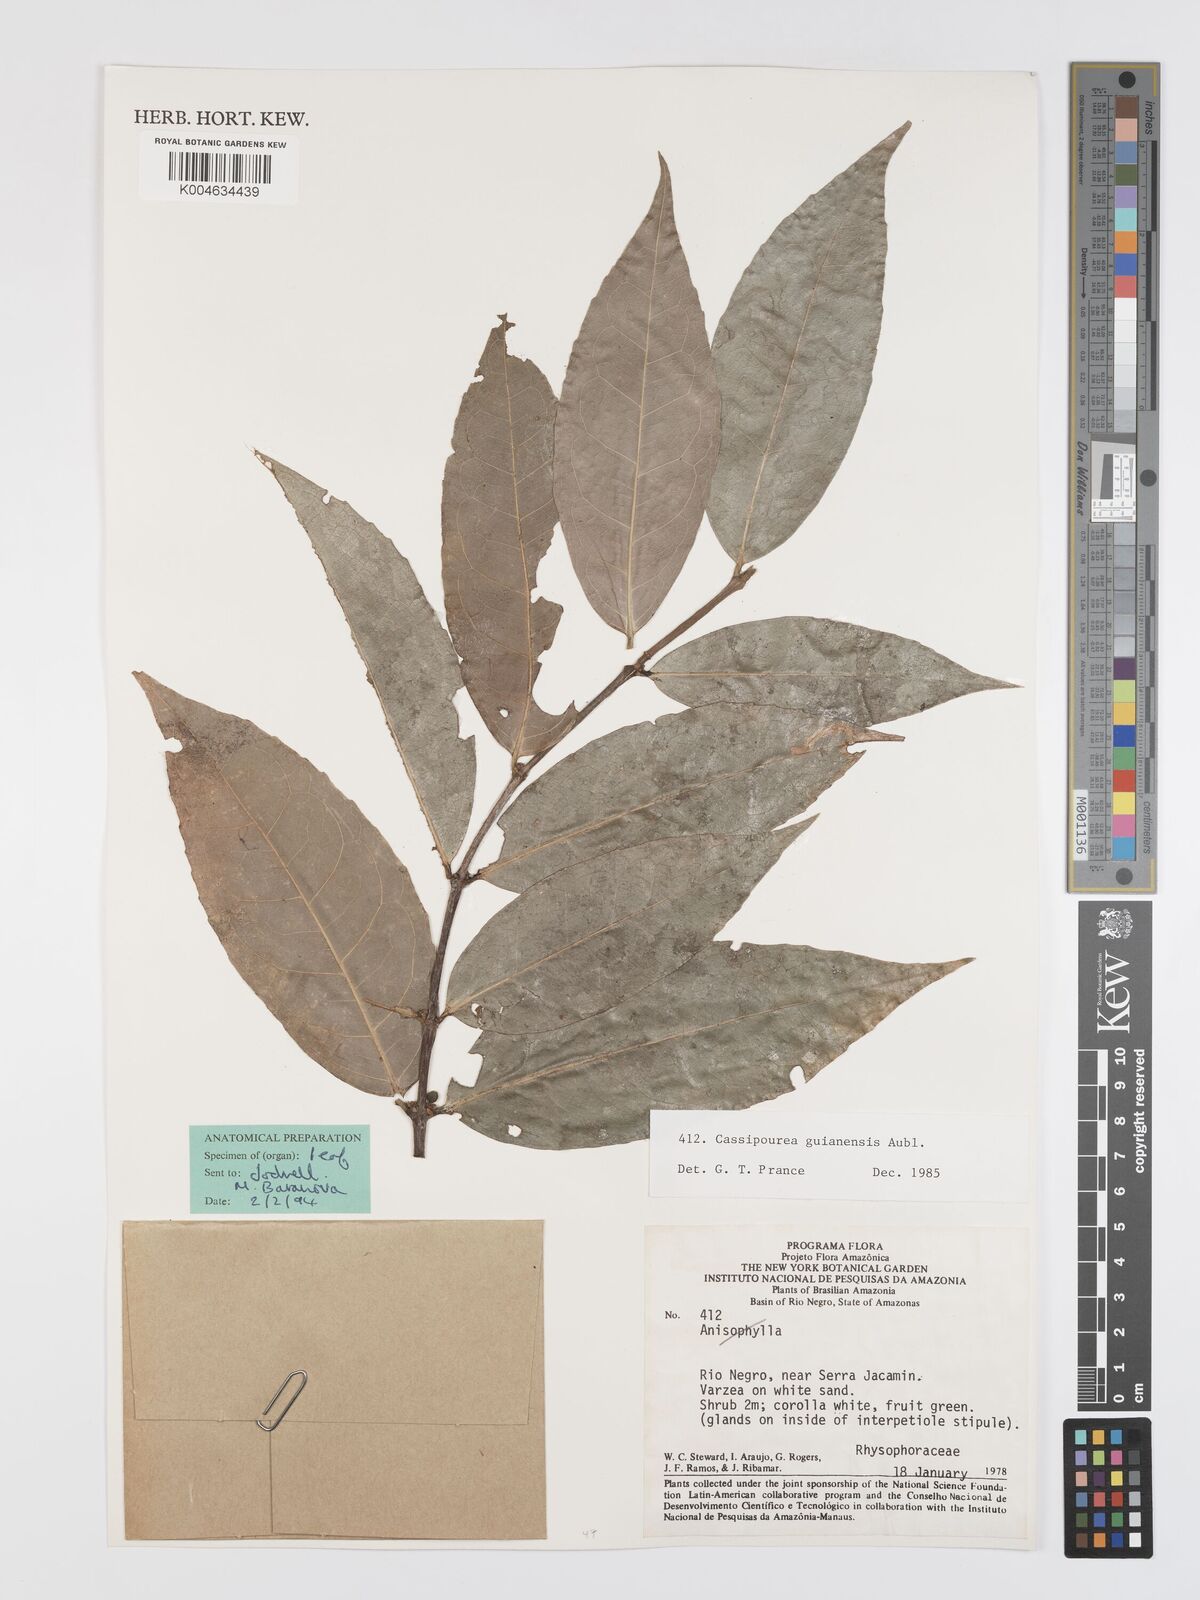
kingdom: Plantae
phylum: Tracheophyta
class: Magnoliopsida
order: Malpighiales
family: Rhizophoraceae
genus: Cassipourea
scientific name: Cassipourea guianensis
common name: Bastard waterwood
